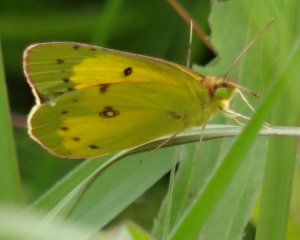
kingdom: Animalia
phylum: Arthropoda
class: Insecta
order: Lepidoptera
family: Pieridae
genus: Colias
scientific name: Colias philodice
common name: Clouded Sulphur
